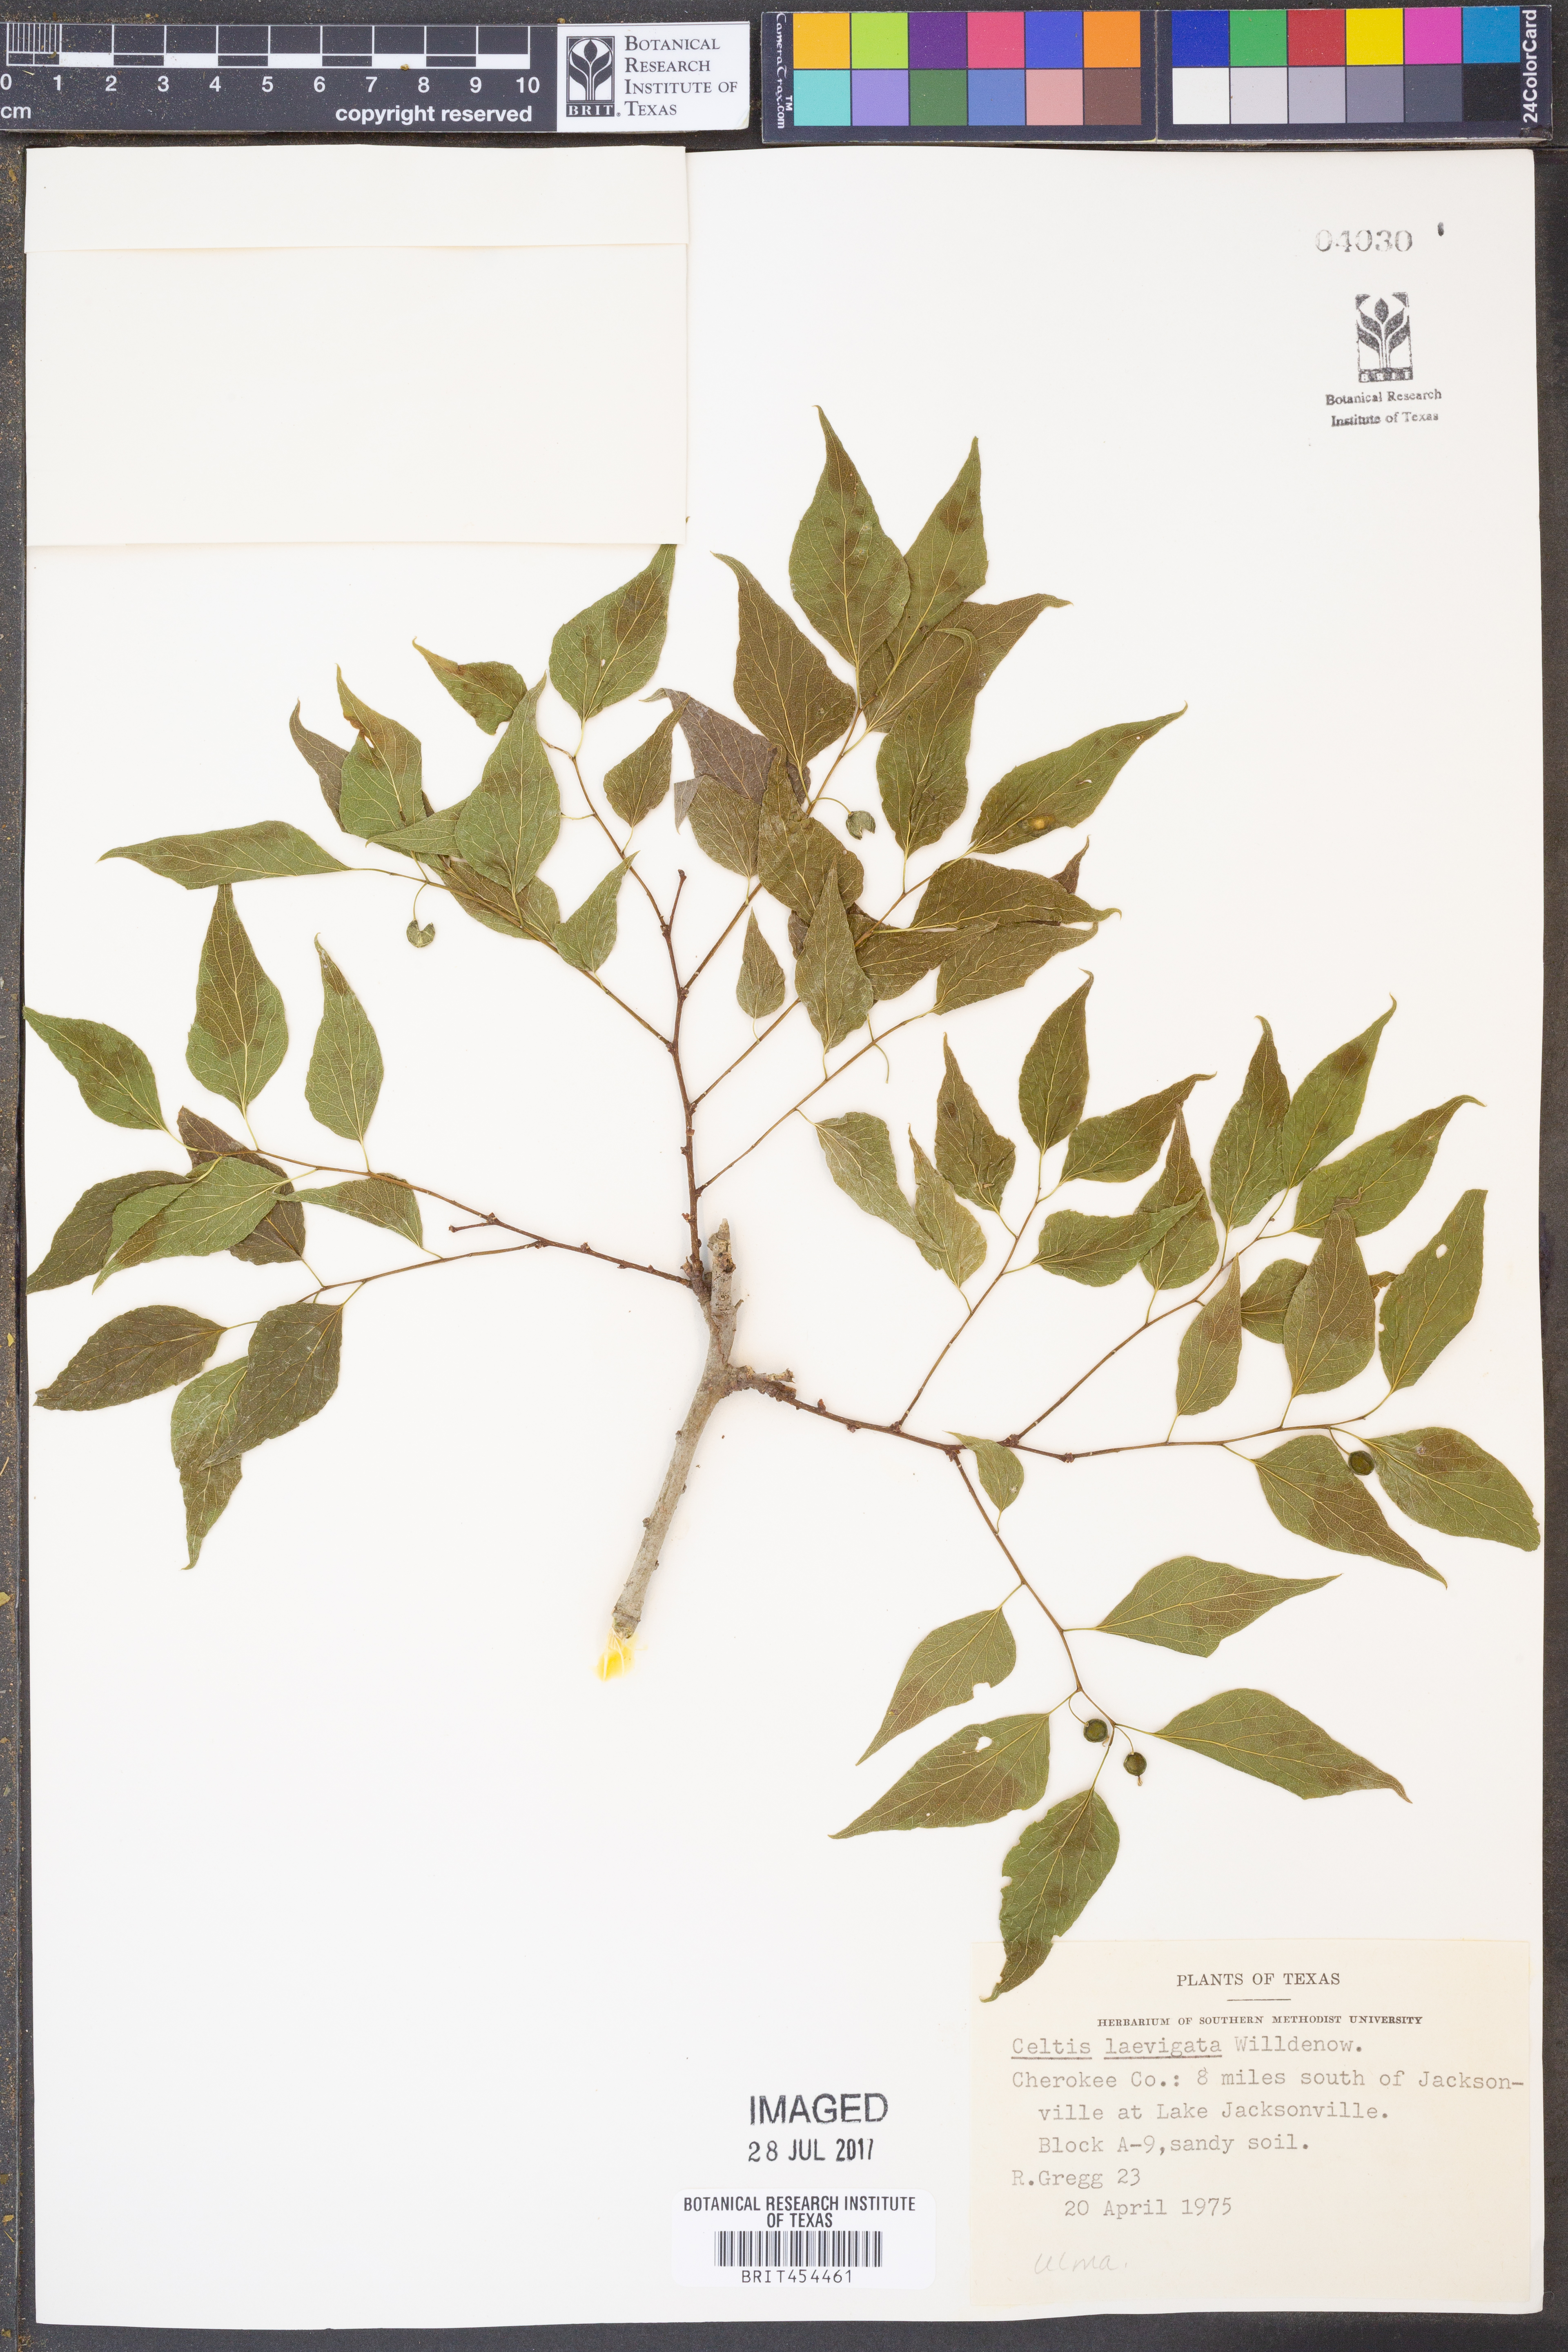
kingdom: Plantae
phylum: Tracheophyta
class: Magnoliopsida
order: Rosales
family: Cannabaceae
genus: Celtis
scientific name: Celtis laevigata
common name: Sugarberry
